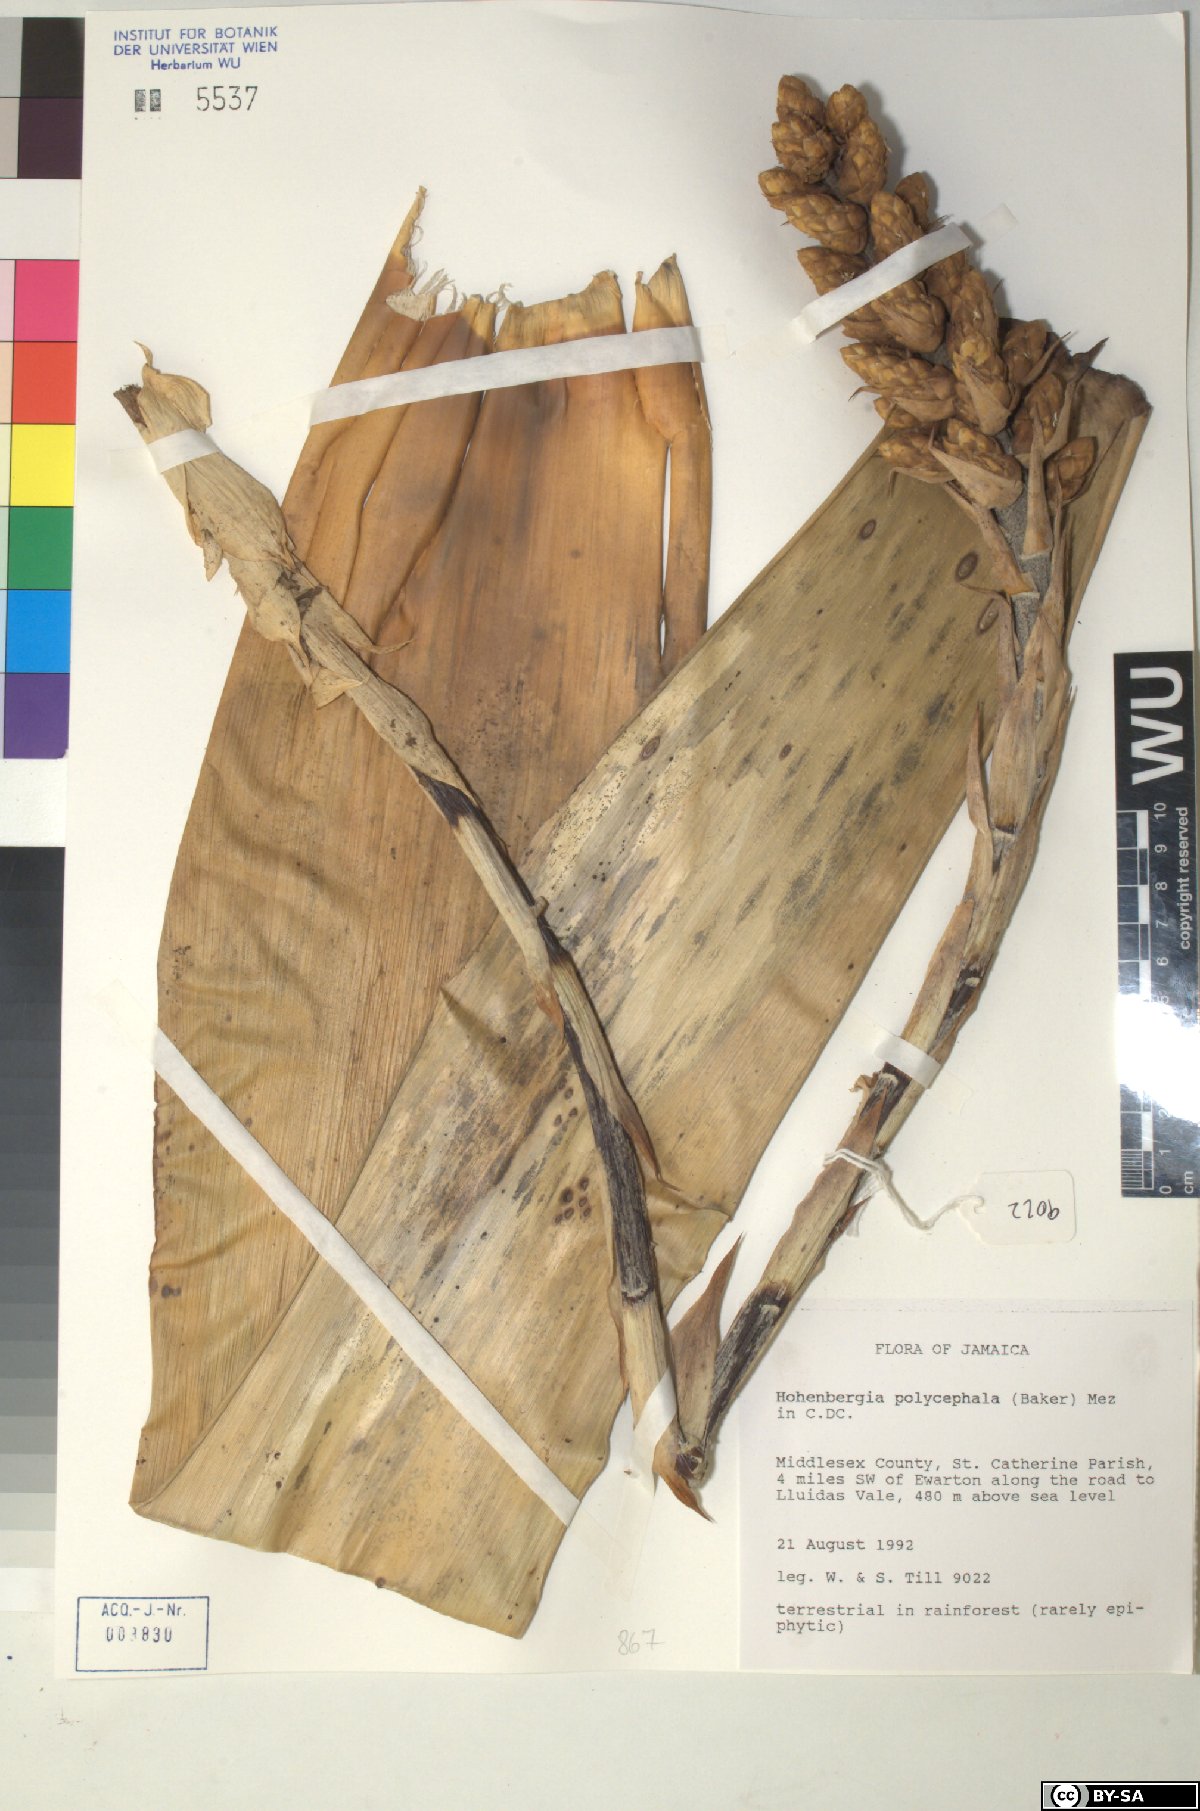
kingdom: Plantae
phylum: Tracheophyta
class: Liliopsida
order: Poales
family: Bromeliaceae
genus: Wittmackia
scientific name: Wittmackia polycephala
